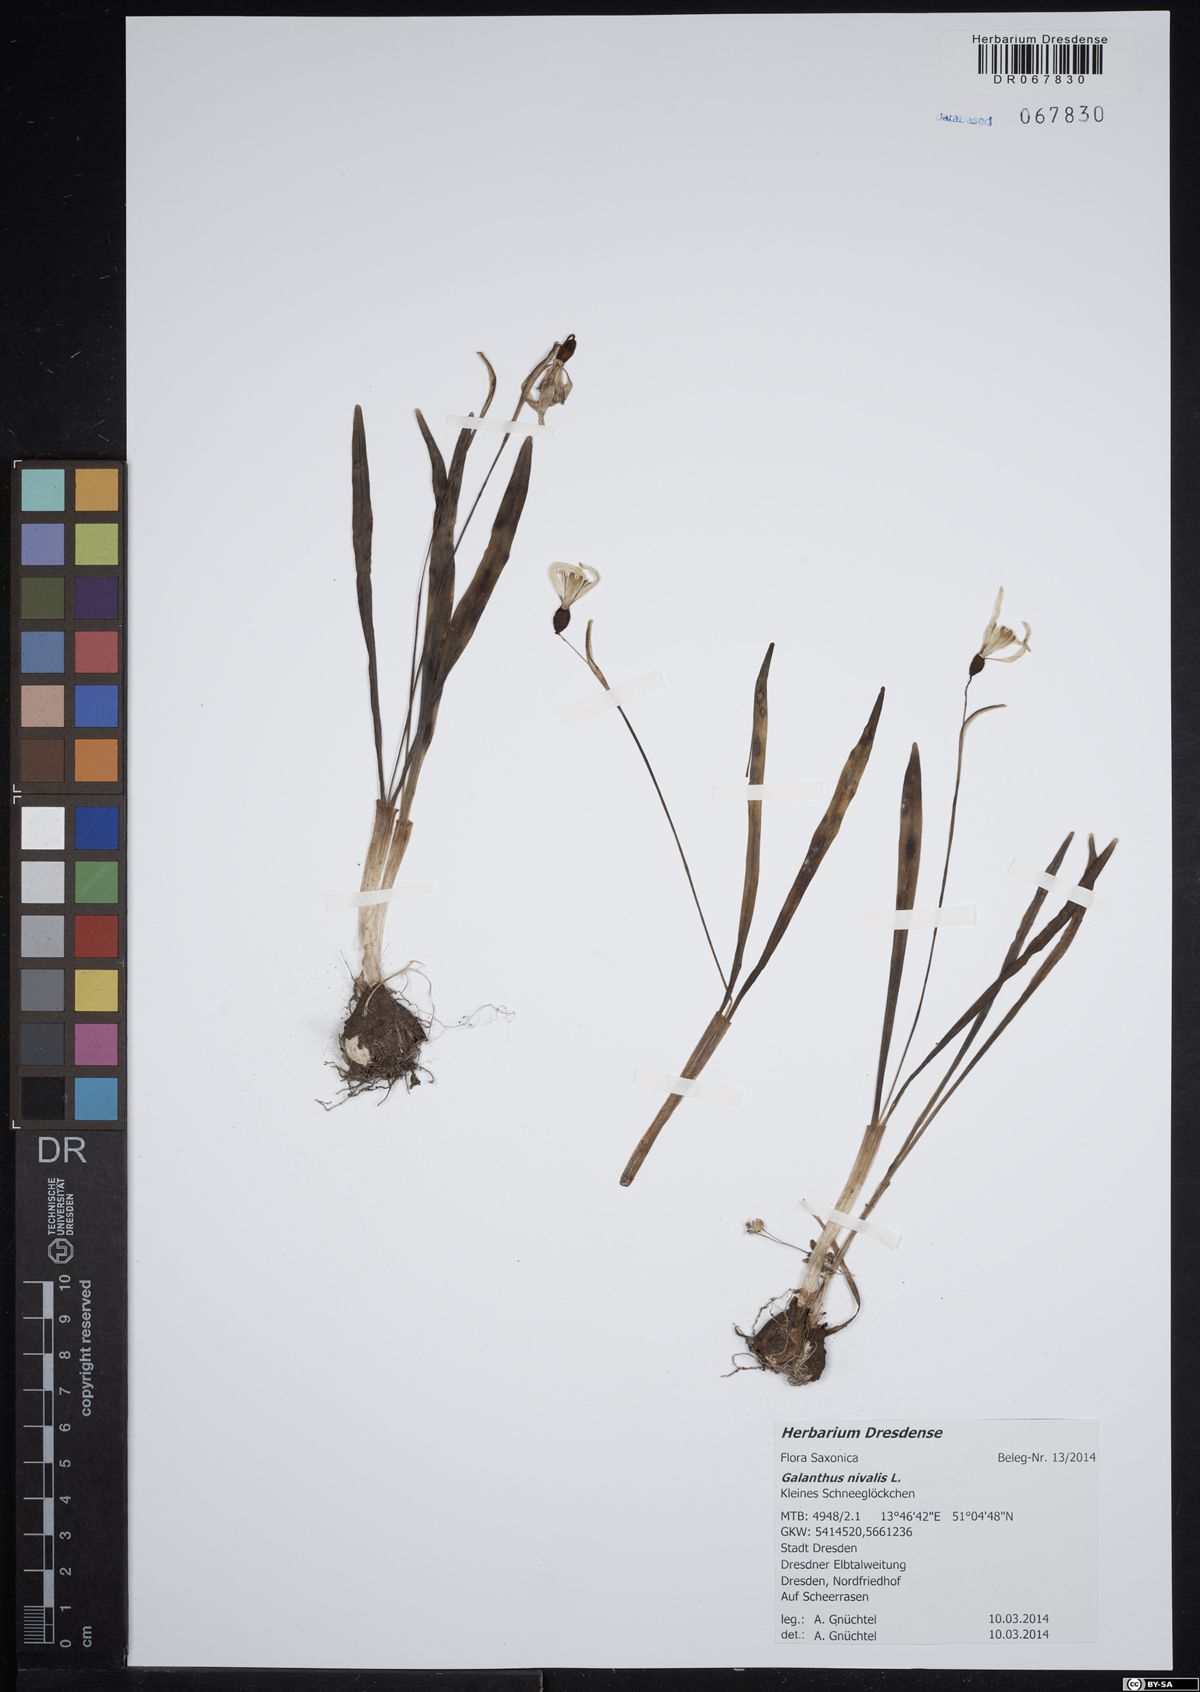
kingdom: Plantae
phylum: Tracheophyta
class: Liliopsida
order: Asparagales
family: Amaryllidaceae
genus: Galanthus
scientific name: Galanthus nivalis
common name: Snowdrop
